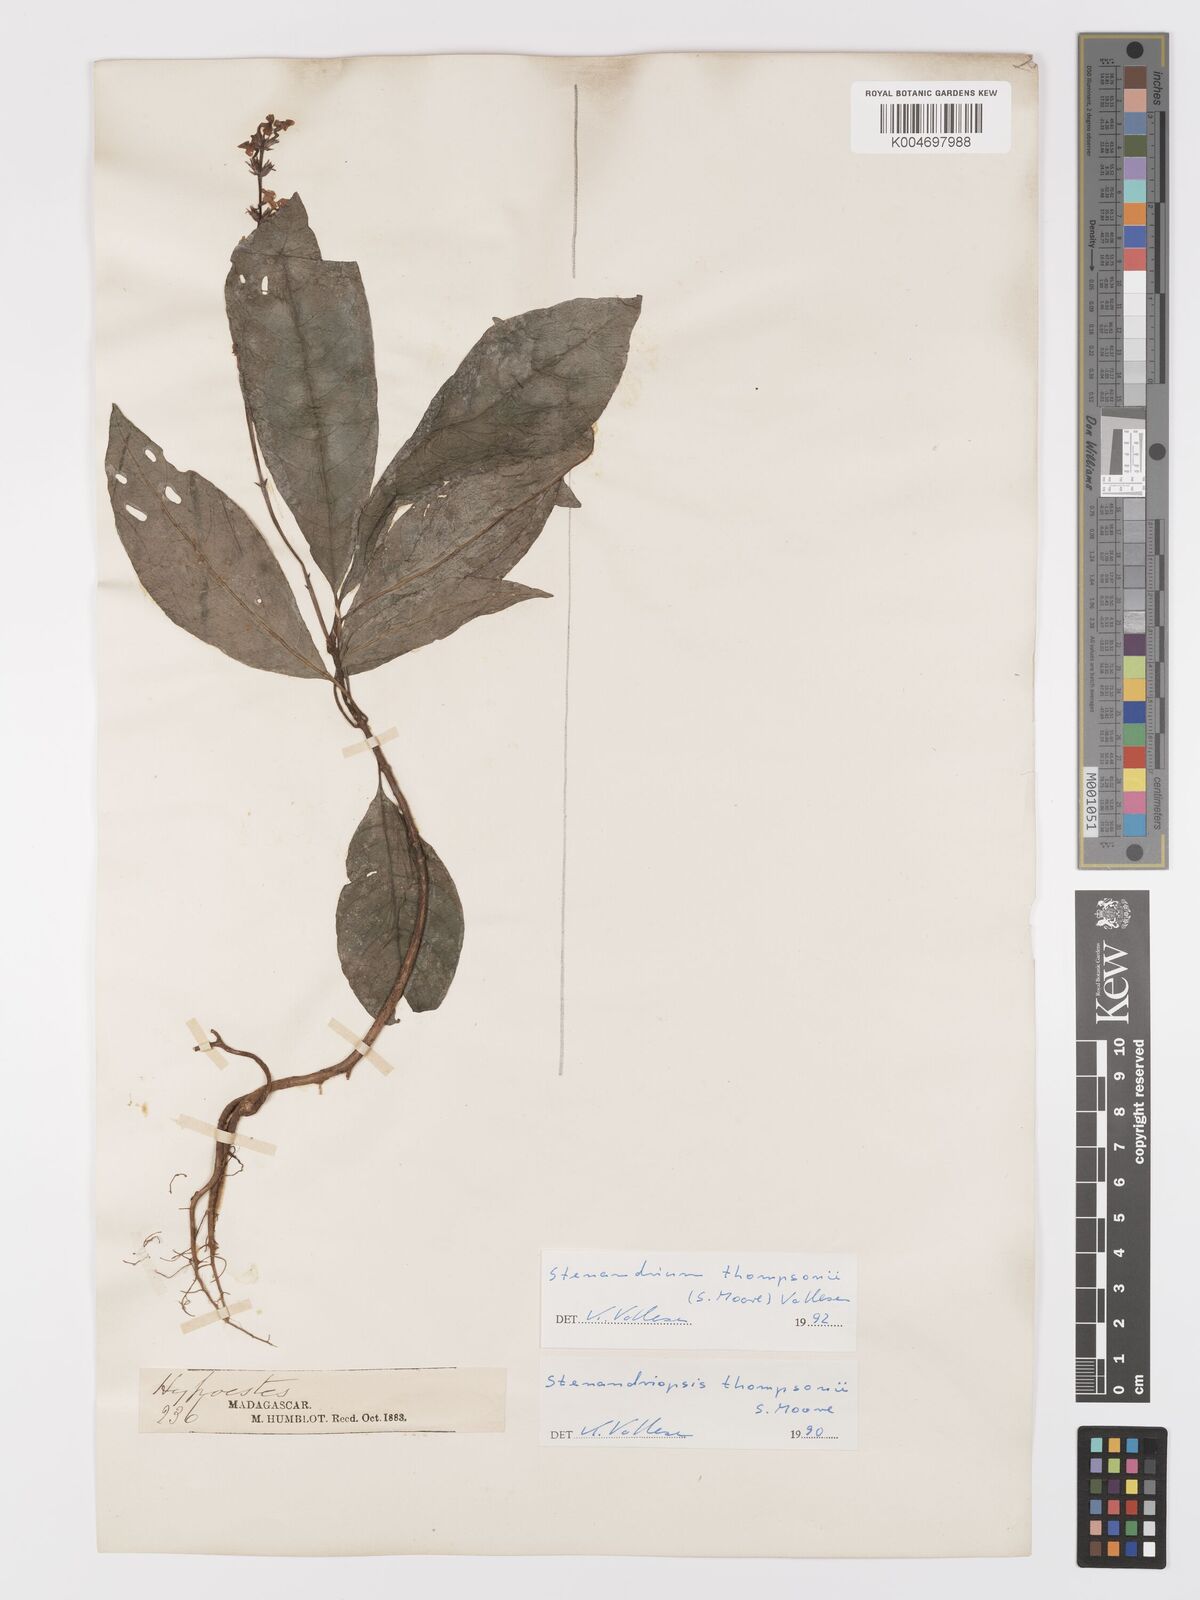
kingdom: Plantae
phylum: Tracheophyta
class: Magnoliopsida
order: Lamiales
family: Acanthaceae
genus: Stenandriopsis
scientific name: Stenandriopsis thompsonii
